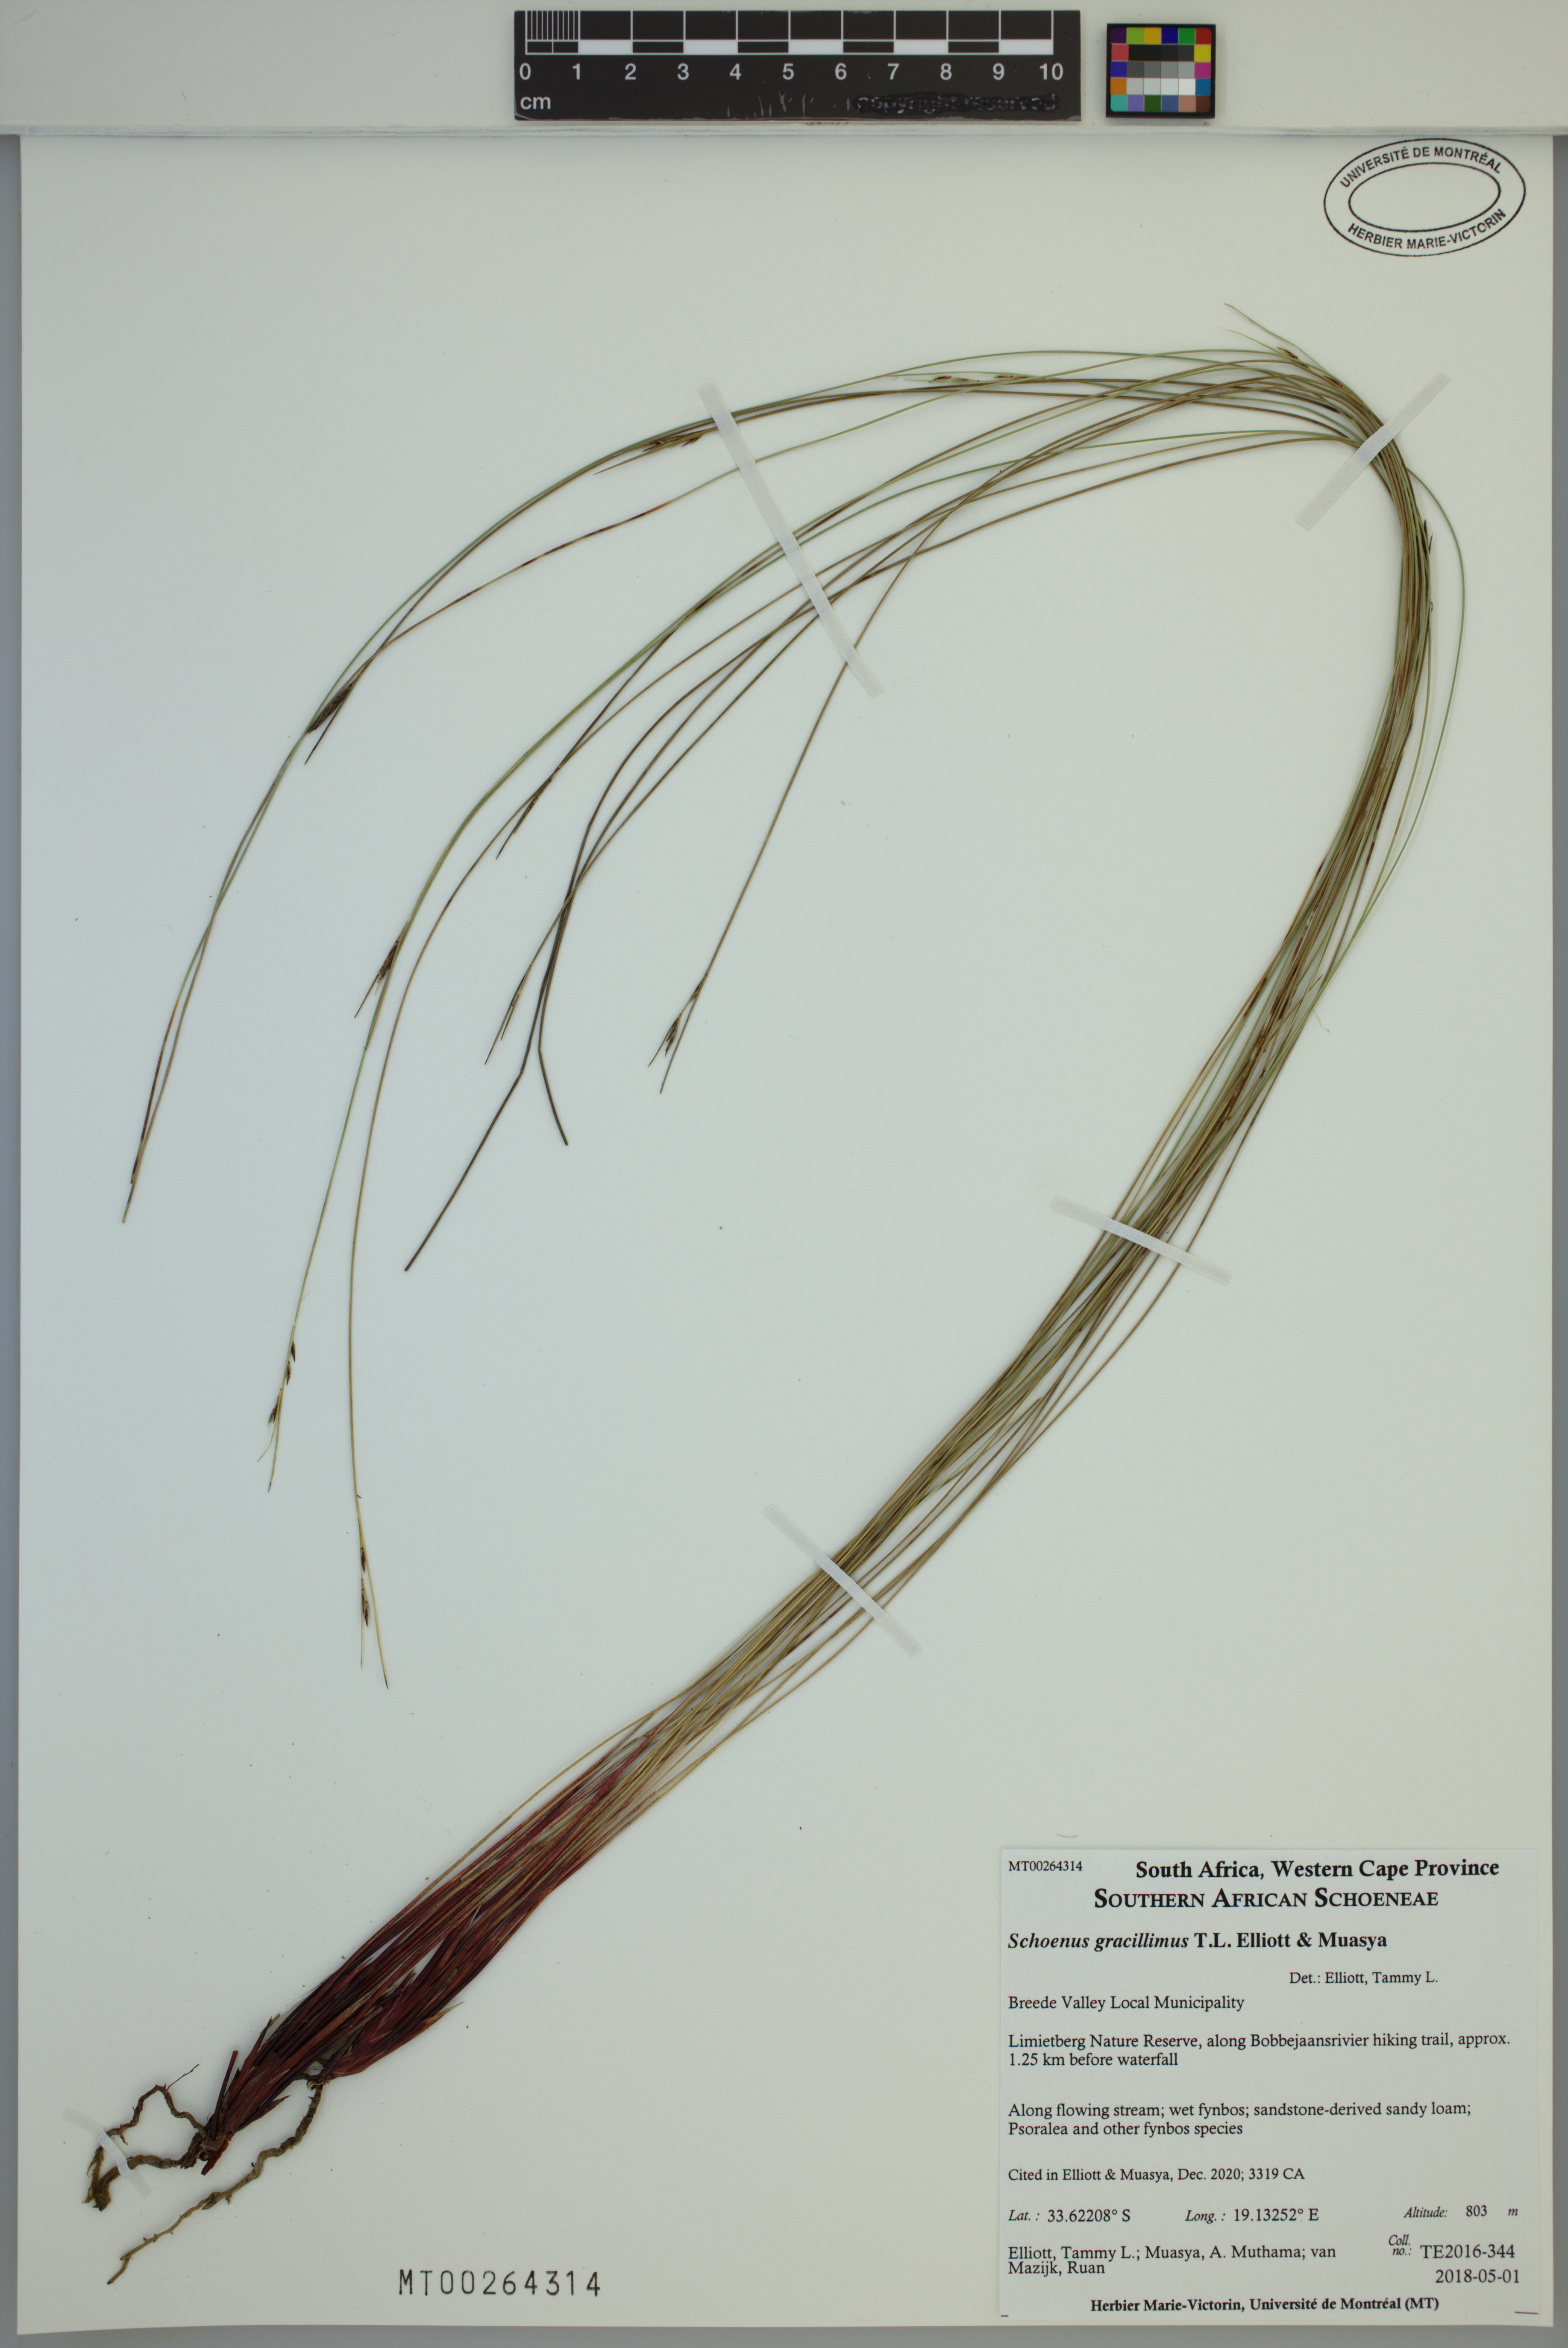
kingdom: Plantae
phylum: Tracheophyta
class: Liliopsida
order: Poales
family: Cyperaceae
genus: Schoenus
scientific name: Schoenus gracillimus
